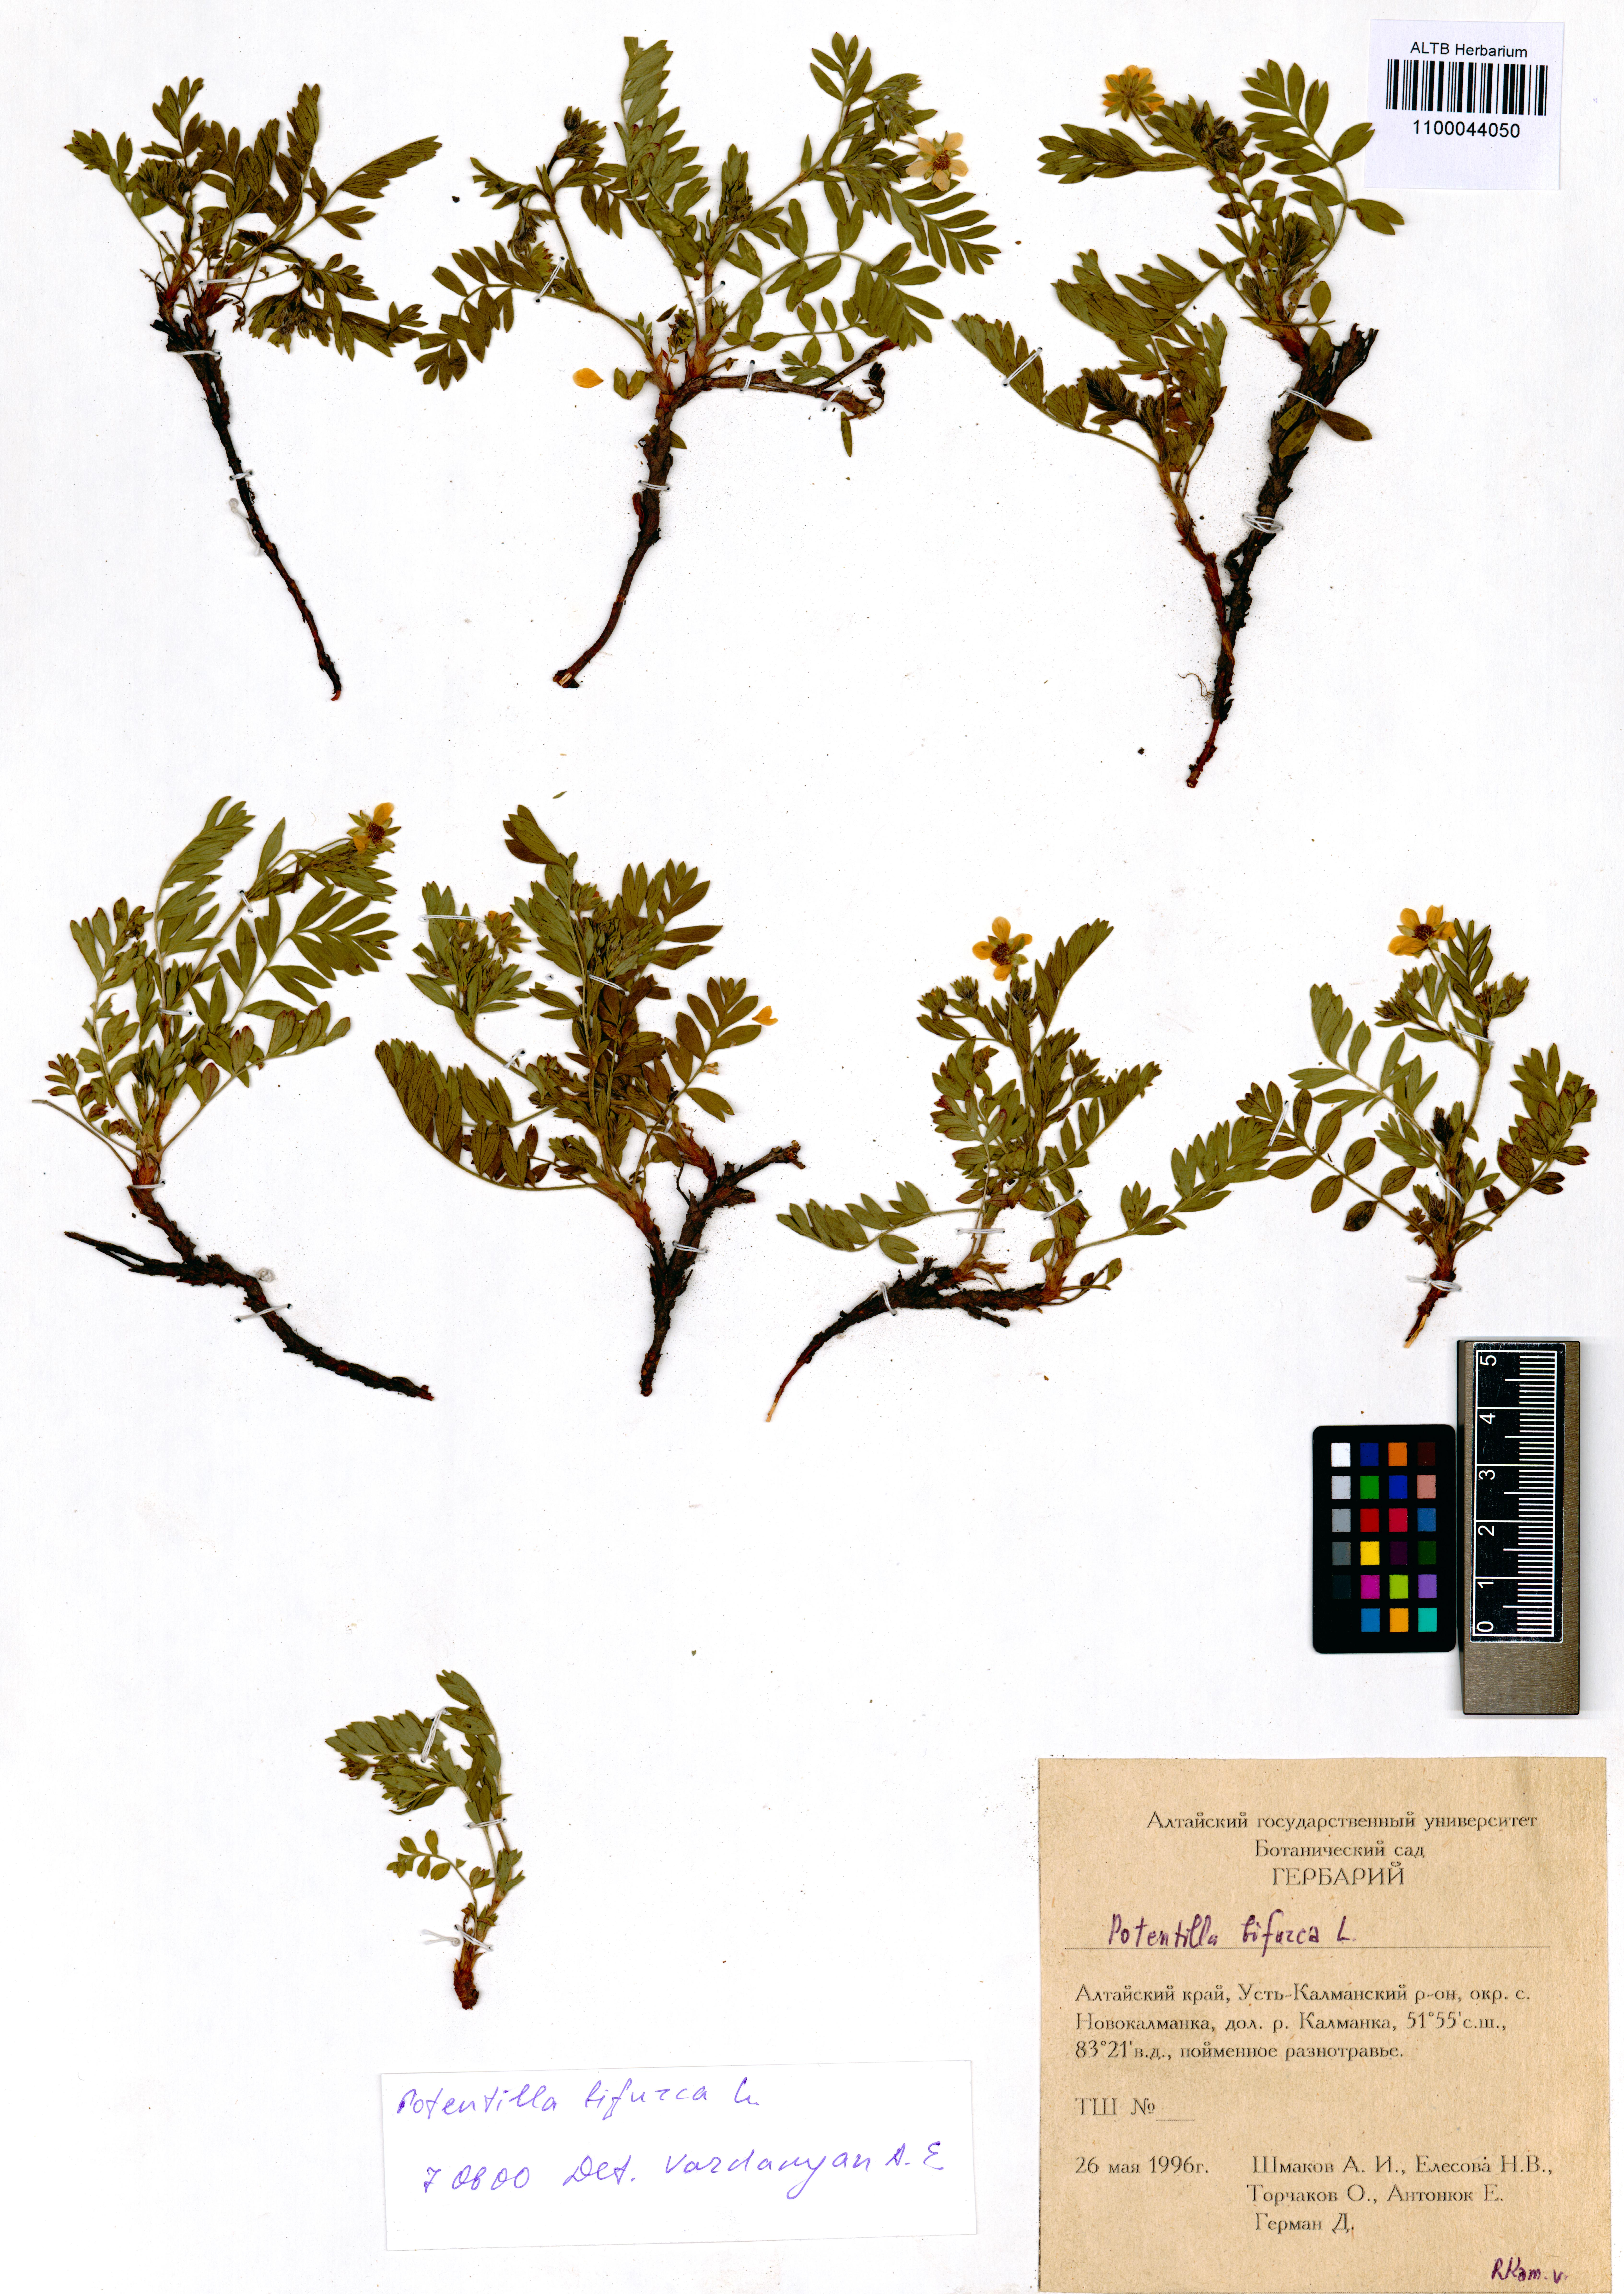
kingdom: Plantae
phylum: Tracheophyta
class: Magnoliopsida
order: Rosales
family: Rosaceae
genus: Sibbaldianthe
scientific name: Sibbaldianthe bifurca
